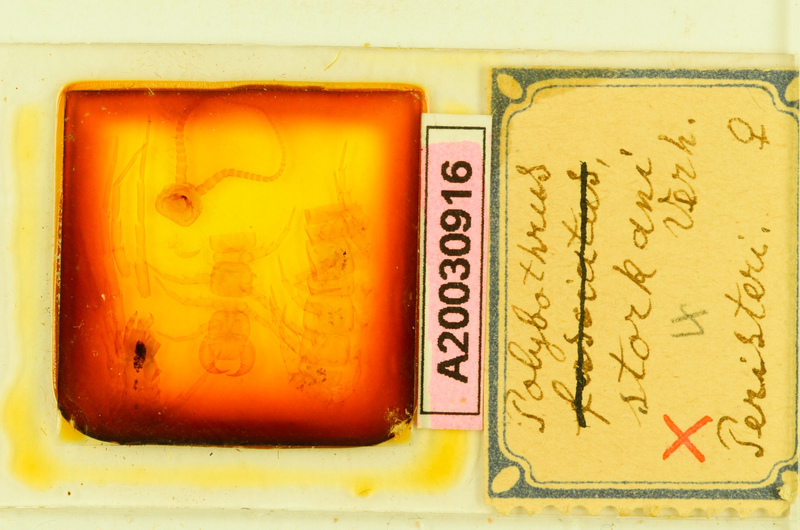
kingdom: Animalia
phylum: Arthropoda
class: Chilopoda
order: Lithobiomorpha
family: Lithobiidae
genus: Eupolybothrus
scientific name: Eupolybothrus litoralis
